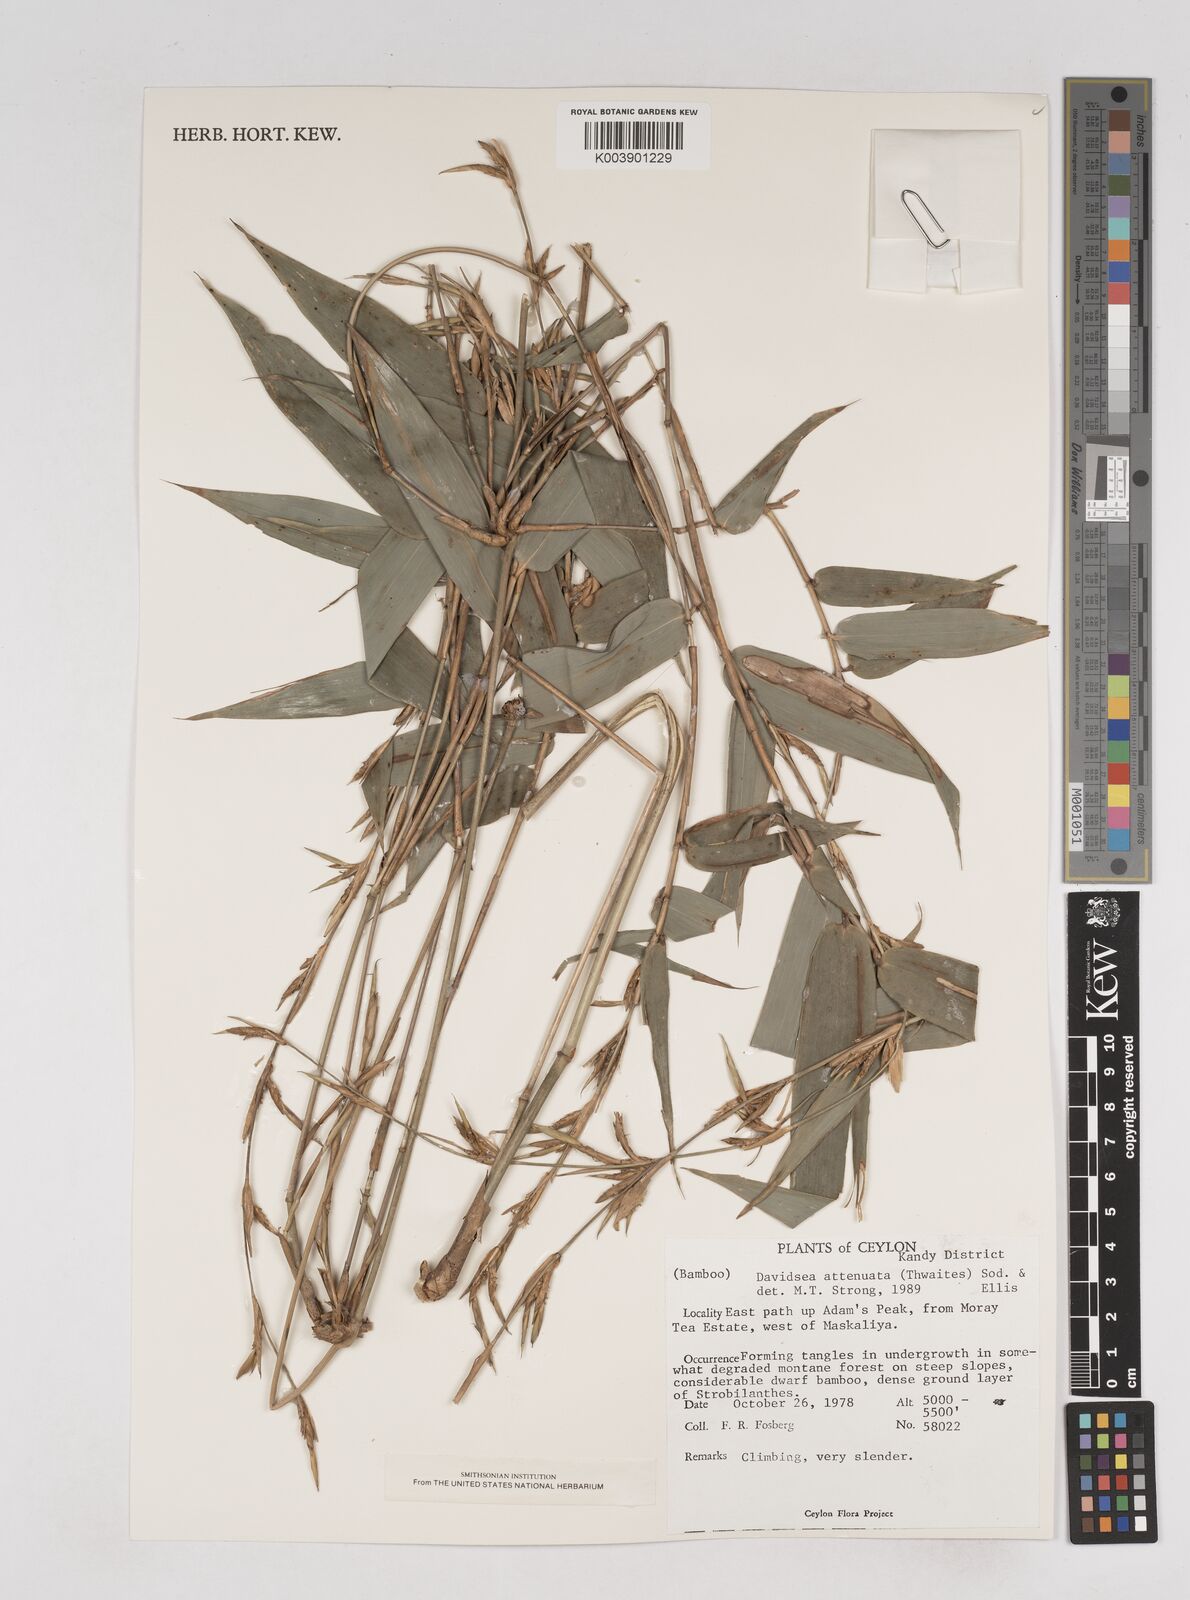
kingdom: Plantae
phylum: Tracheophyta
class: Liliopsida
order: Poales
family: Poaceae
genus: Davidsea
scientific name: Davidsea
